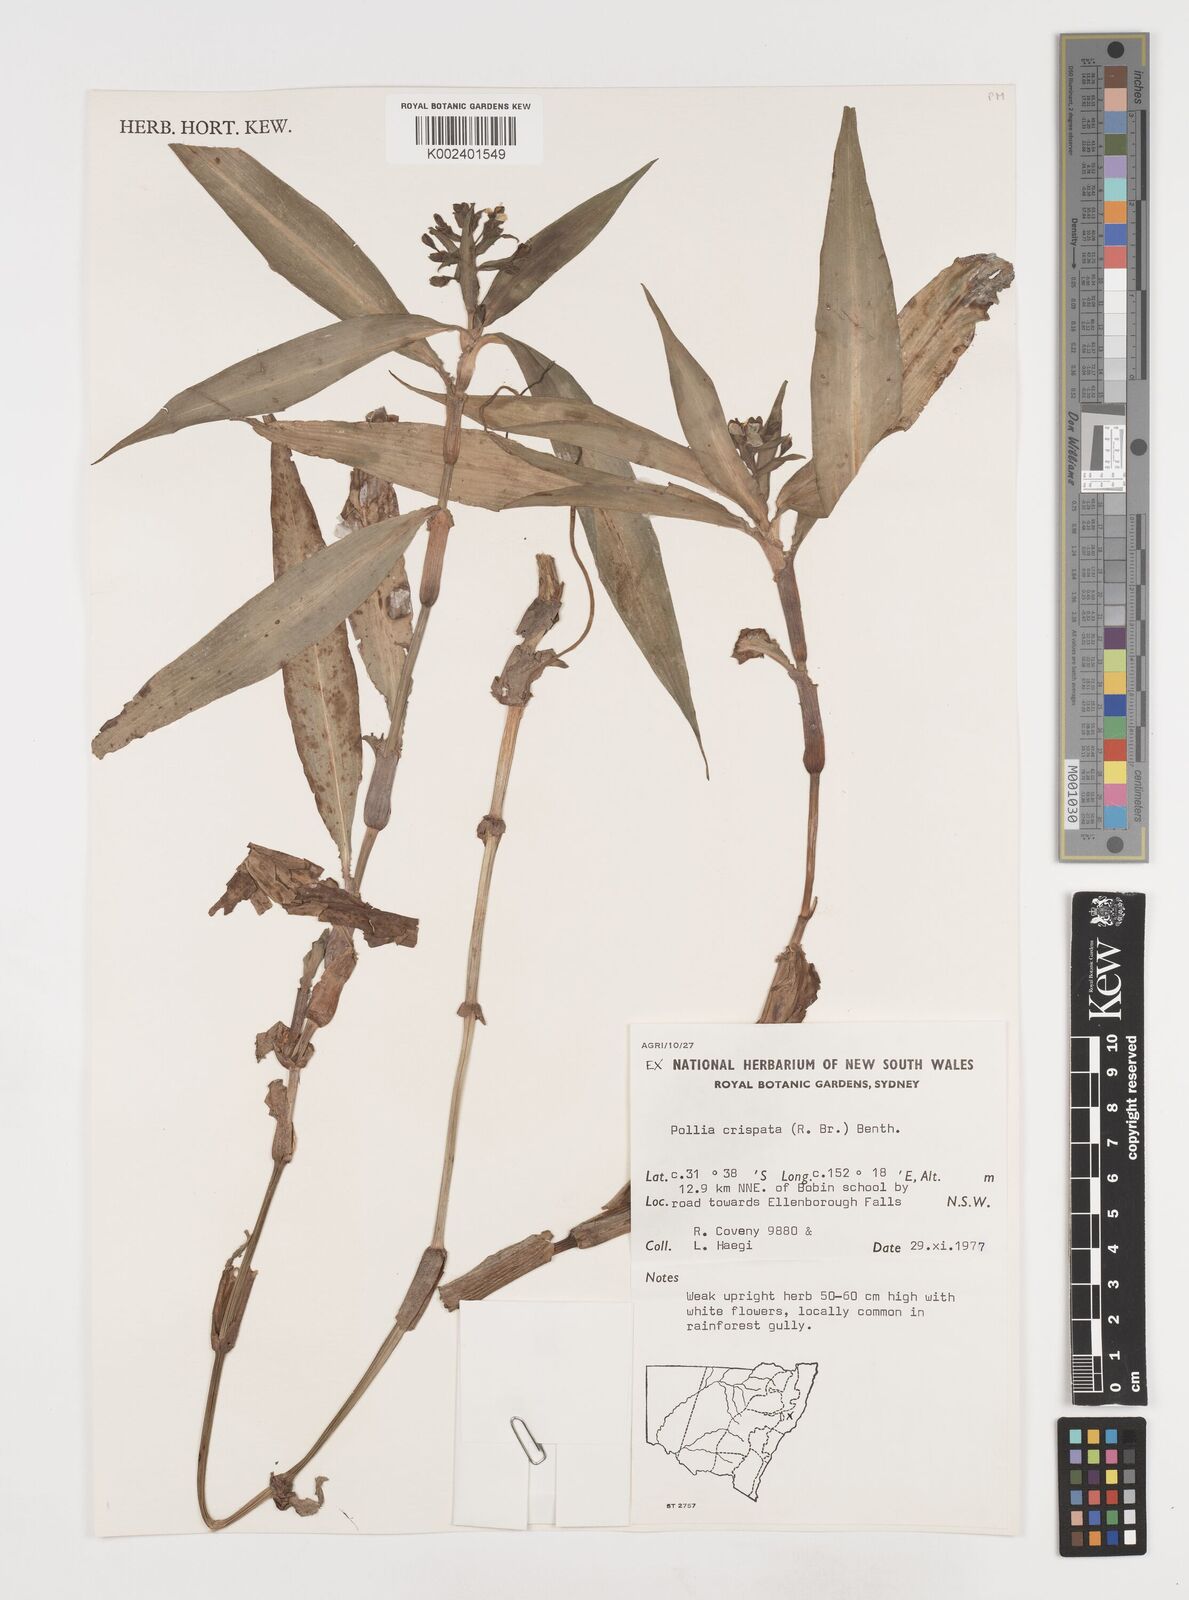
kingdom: Plantae
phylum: Tracheophyta
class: Liliopsida
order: Commelinales
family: Commelinaceae
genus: Pollia
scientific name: Pollia crispata
